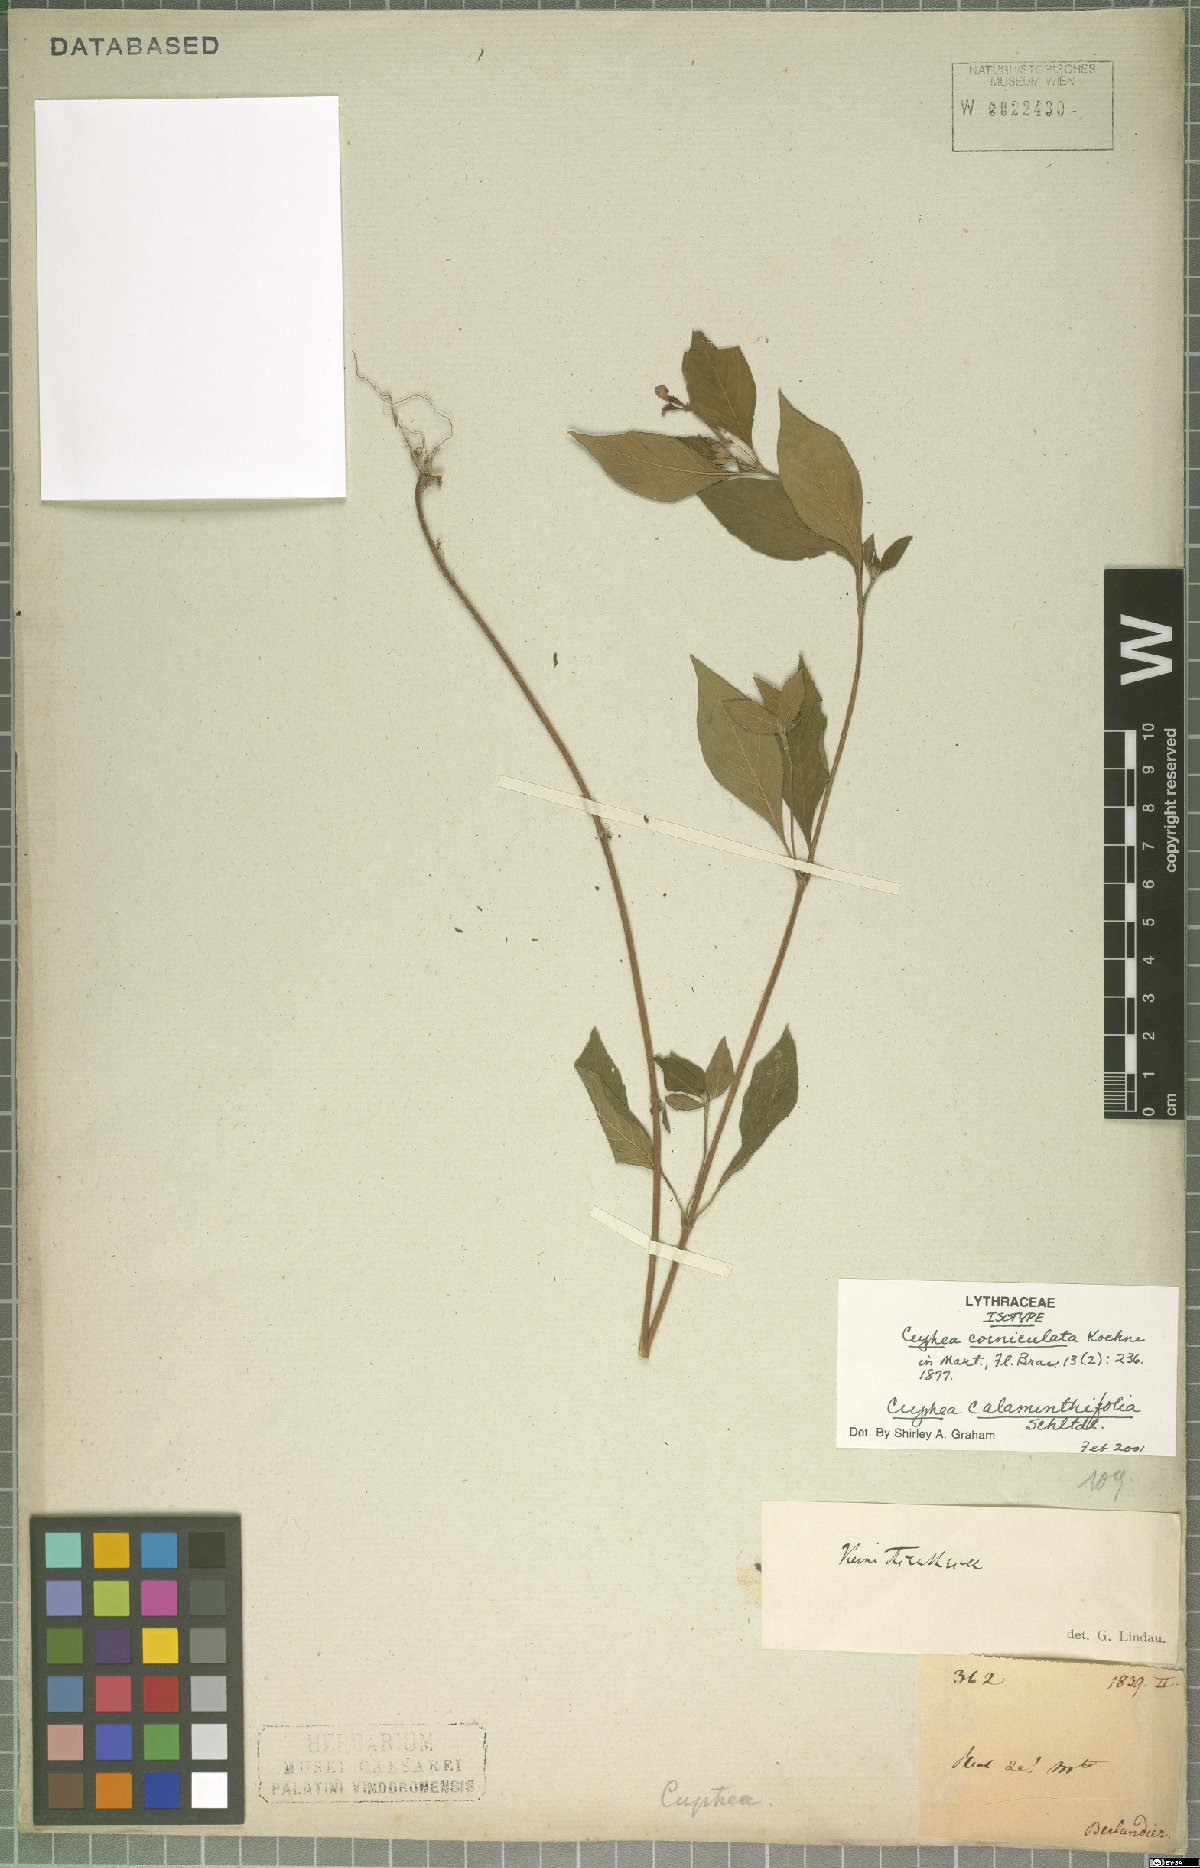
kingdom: Plantae
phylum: Tracheophyta
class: Magnoliopsida
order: Myrtales
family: Lythraceae
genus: Cuphea
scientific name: Cuphea calaminthifolia
